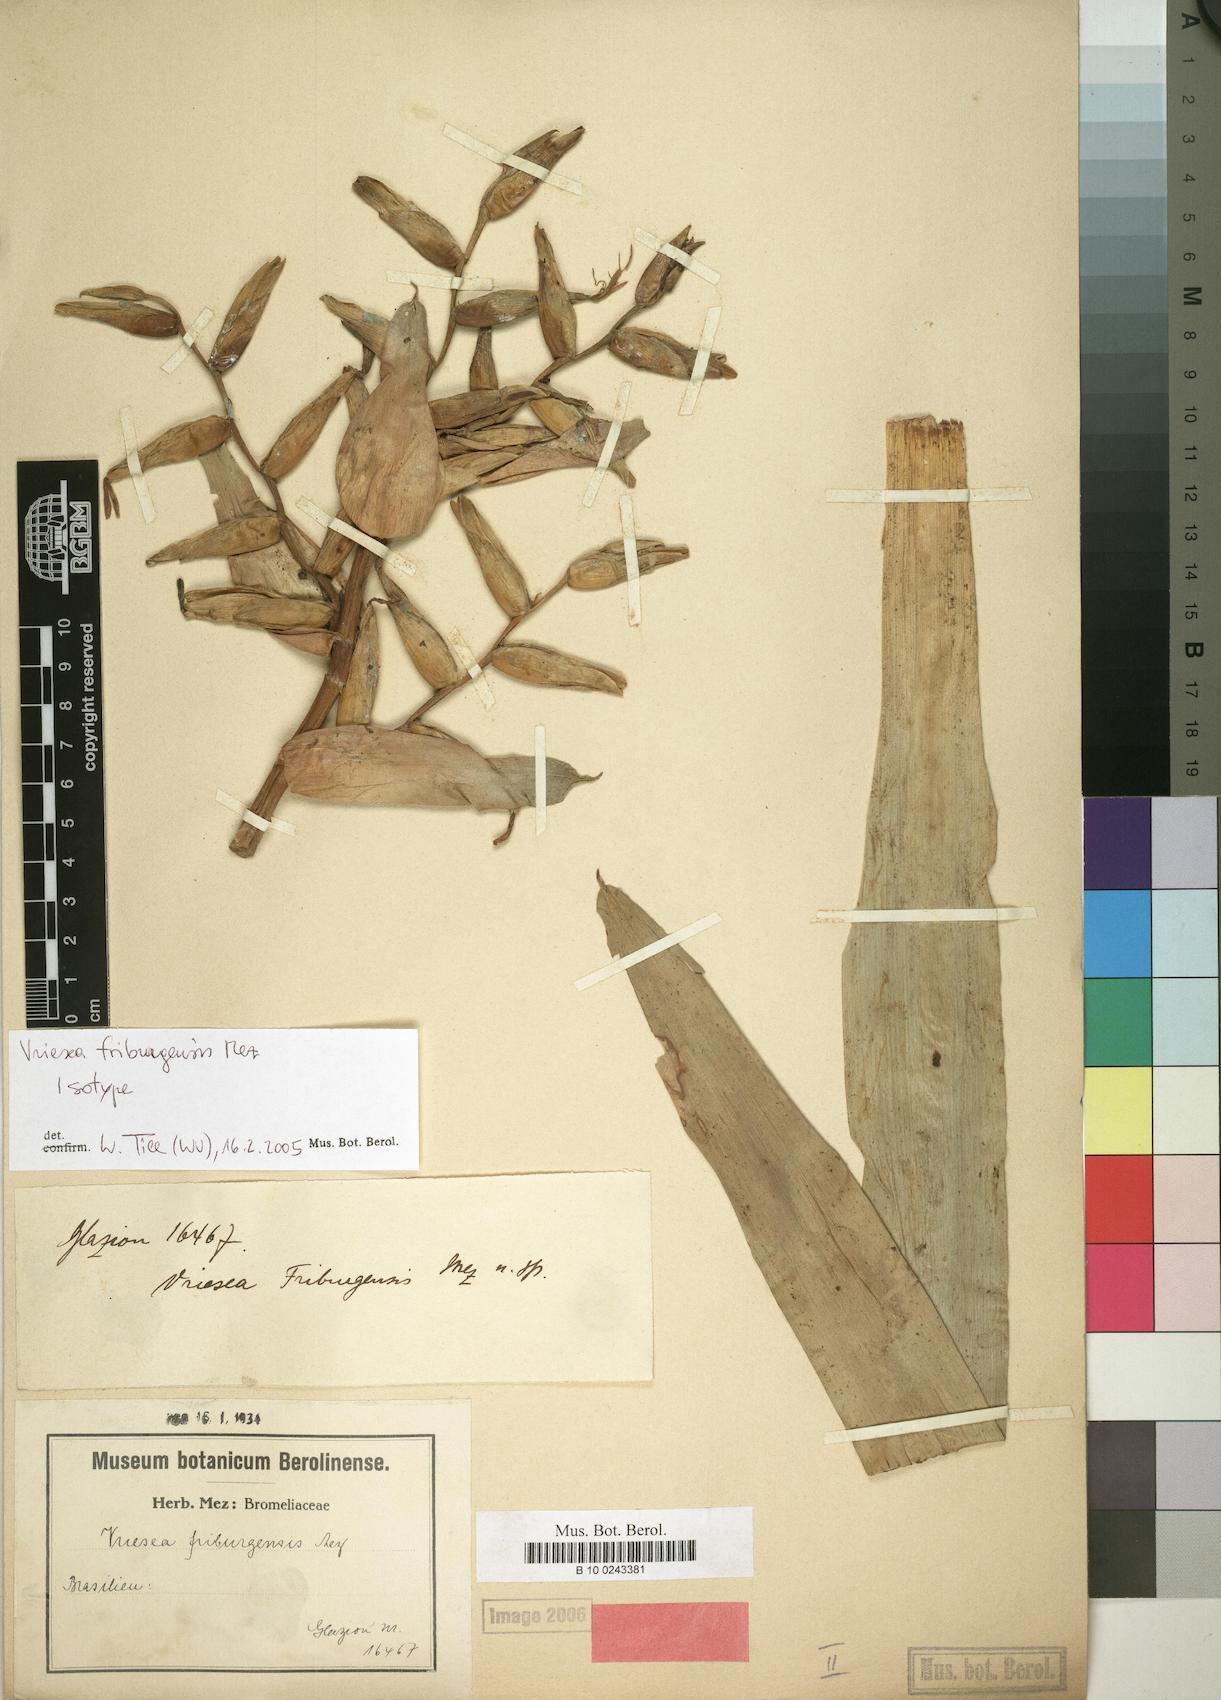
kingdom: Plantae
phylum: Tracheophyta
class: Liliopsida
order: Poales
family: Bromeliaceae
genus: Vriesea
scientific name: Vriesea friburgensis
